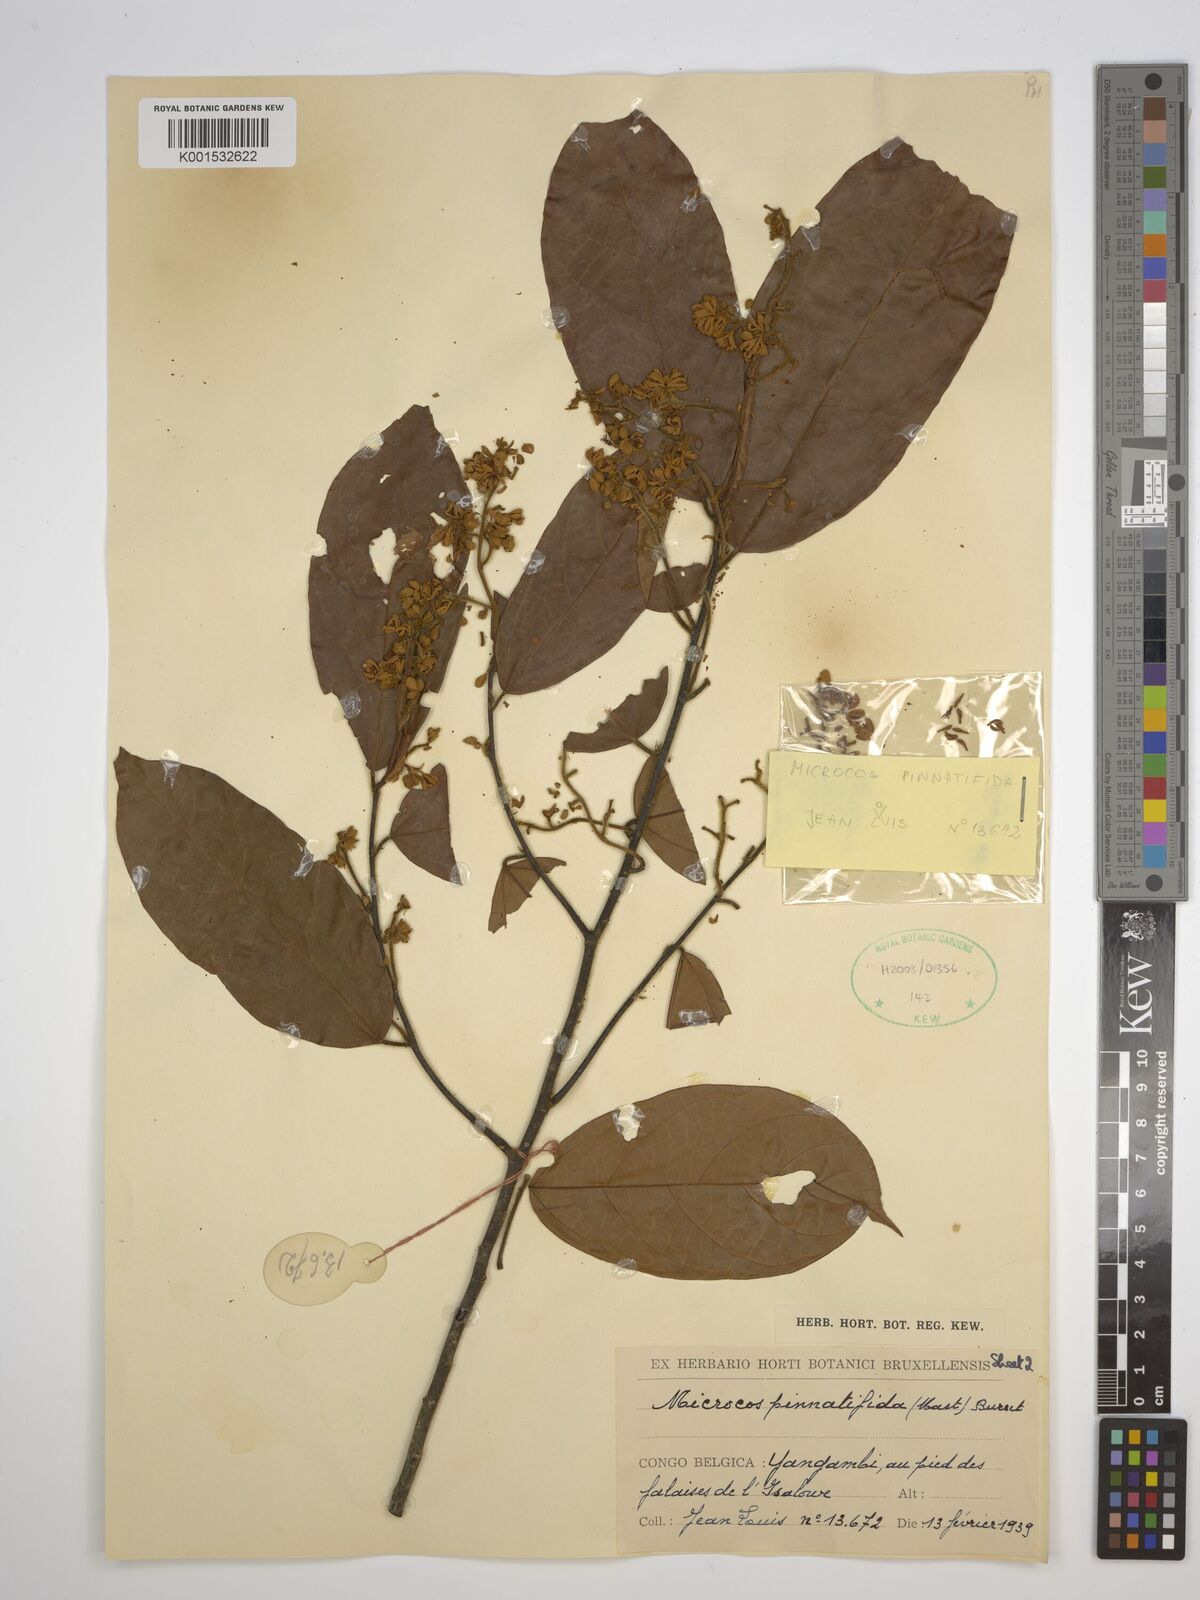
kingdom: Plantae
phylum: Tracheophyta
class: Magnoliopsida
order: Malvales
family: Malvaceae
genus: Microcos
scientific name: Microcos pinnatifida
